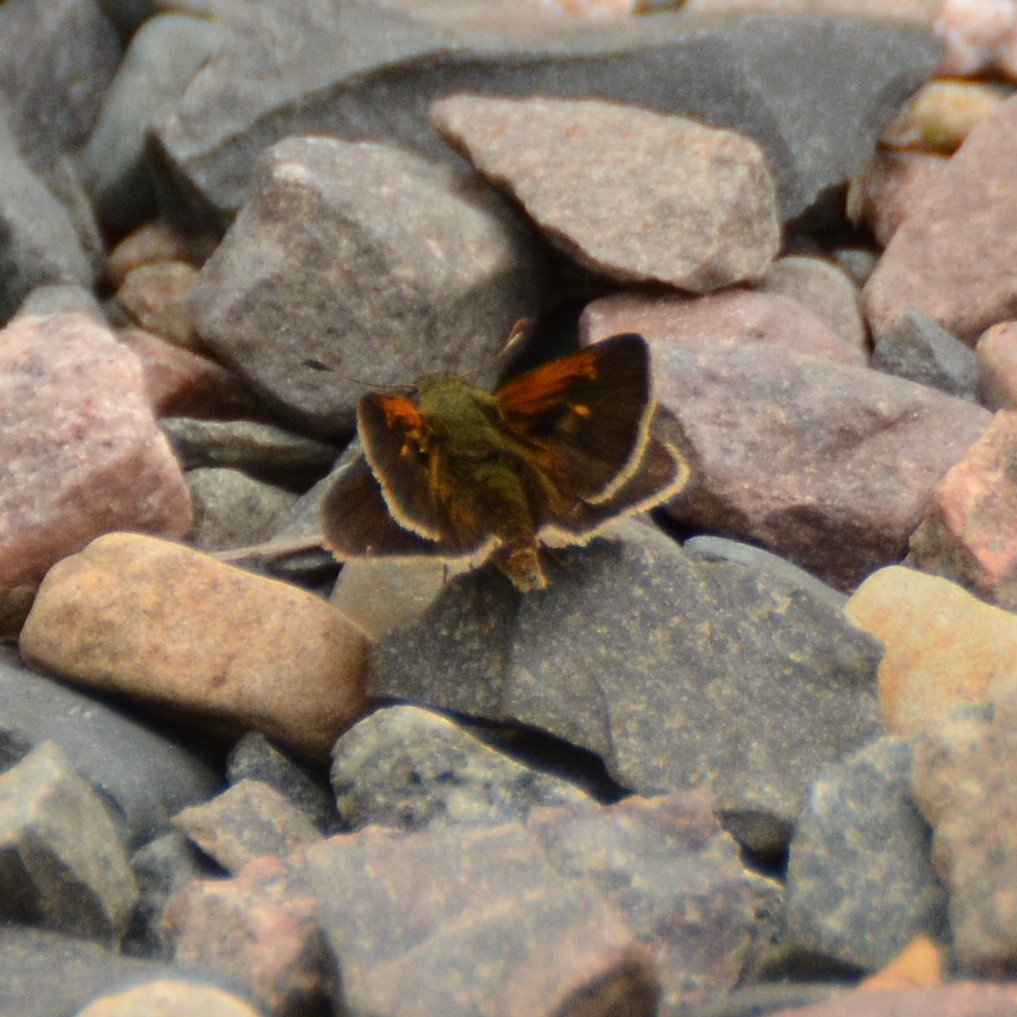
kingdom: Animalia
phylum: Arthropoda
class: Insecta
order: Lepidoptera
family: Hesperiidae
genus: Polites
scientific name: Polites themistocles
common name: Tawny-edged Skipper
